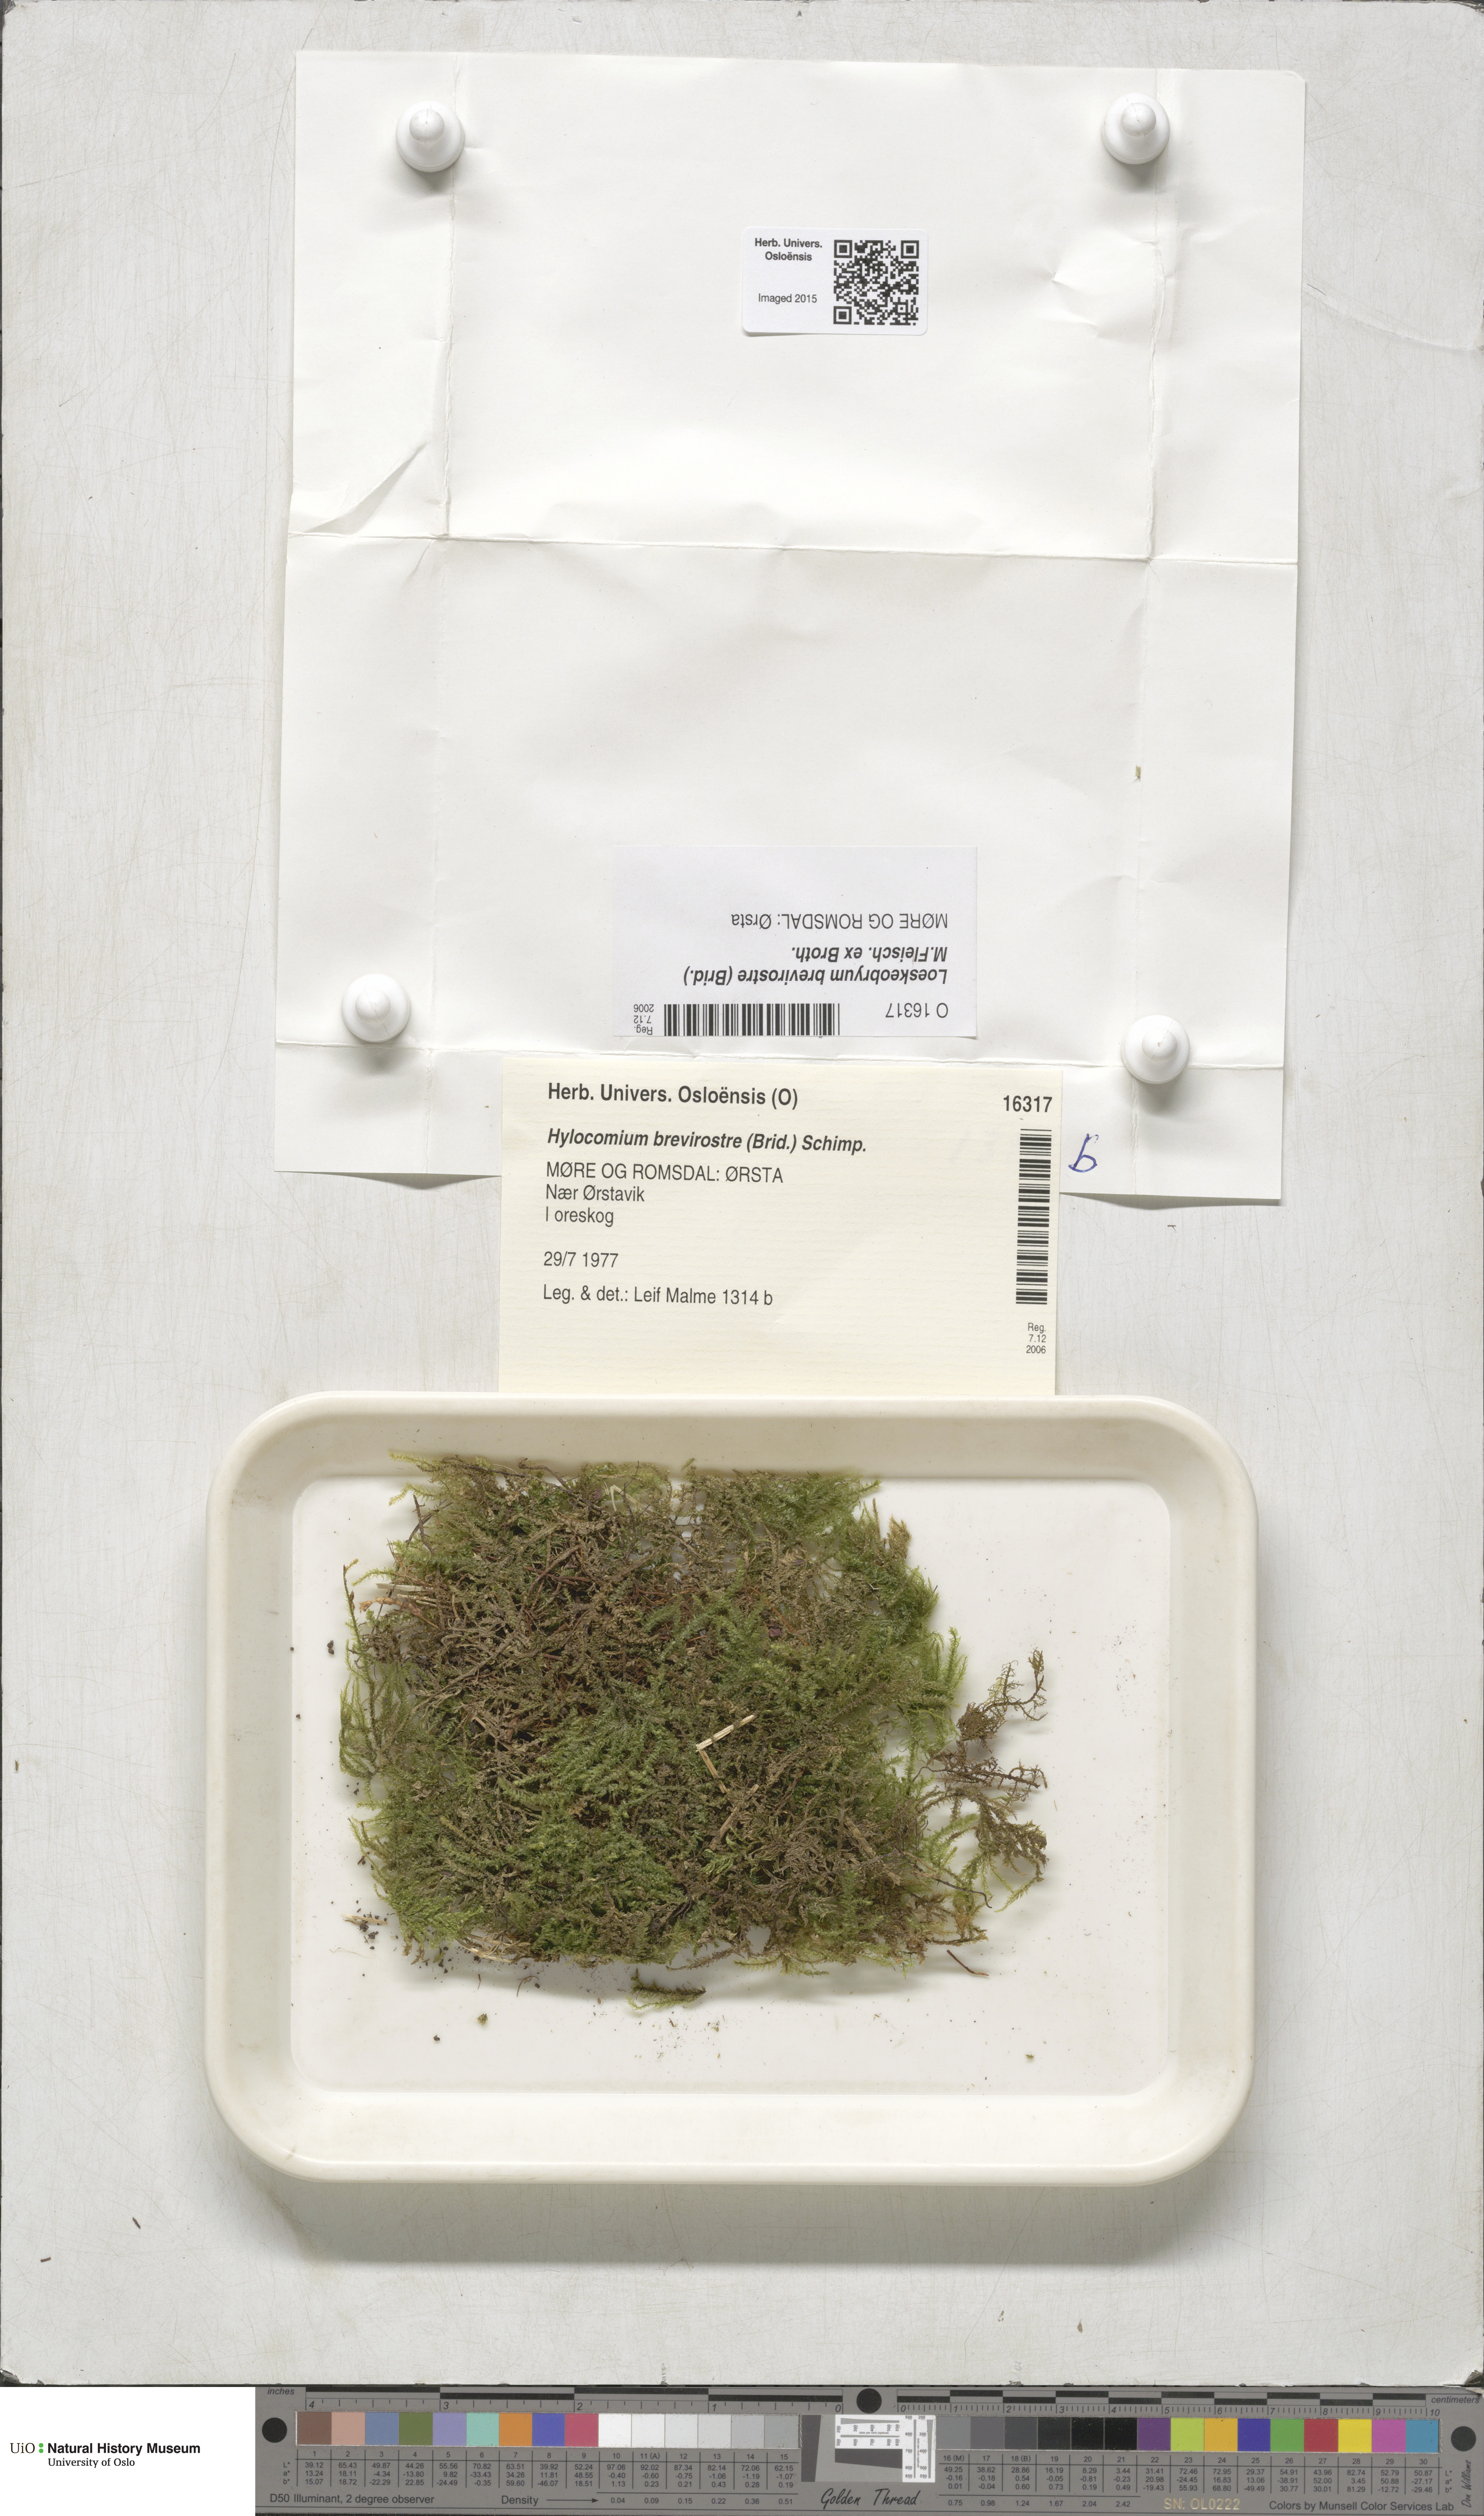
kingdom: Plantae
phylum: Bryophyta
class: Bryopsida
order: Hypnales
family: Hylocomiaceae
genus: Loeskeobryum
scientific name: Loeskeobryum brevirostre
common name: Short-beaked wood-moss
